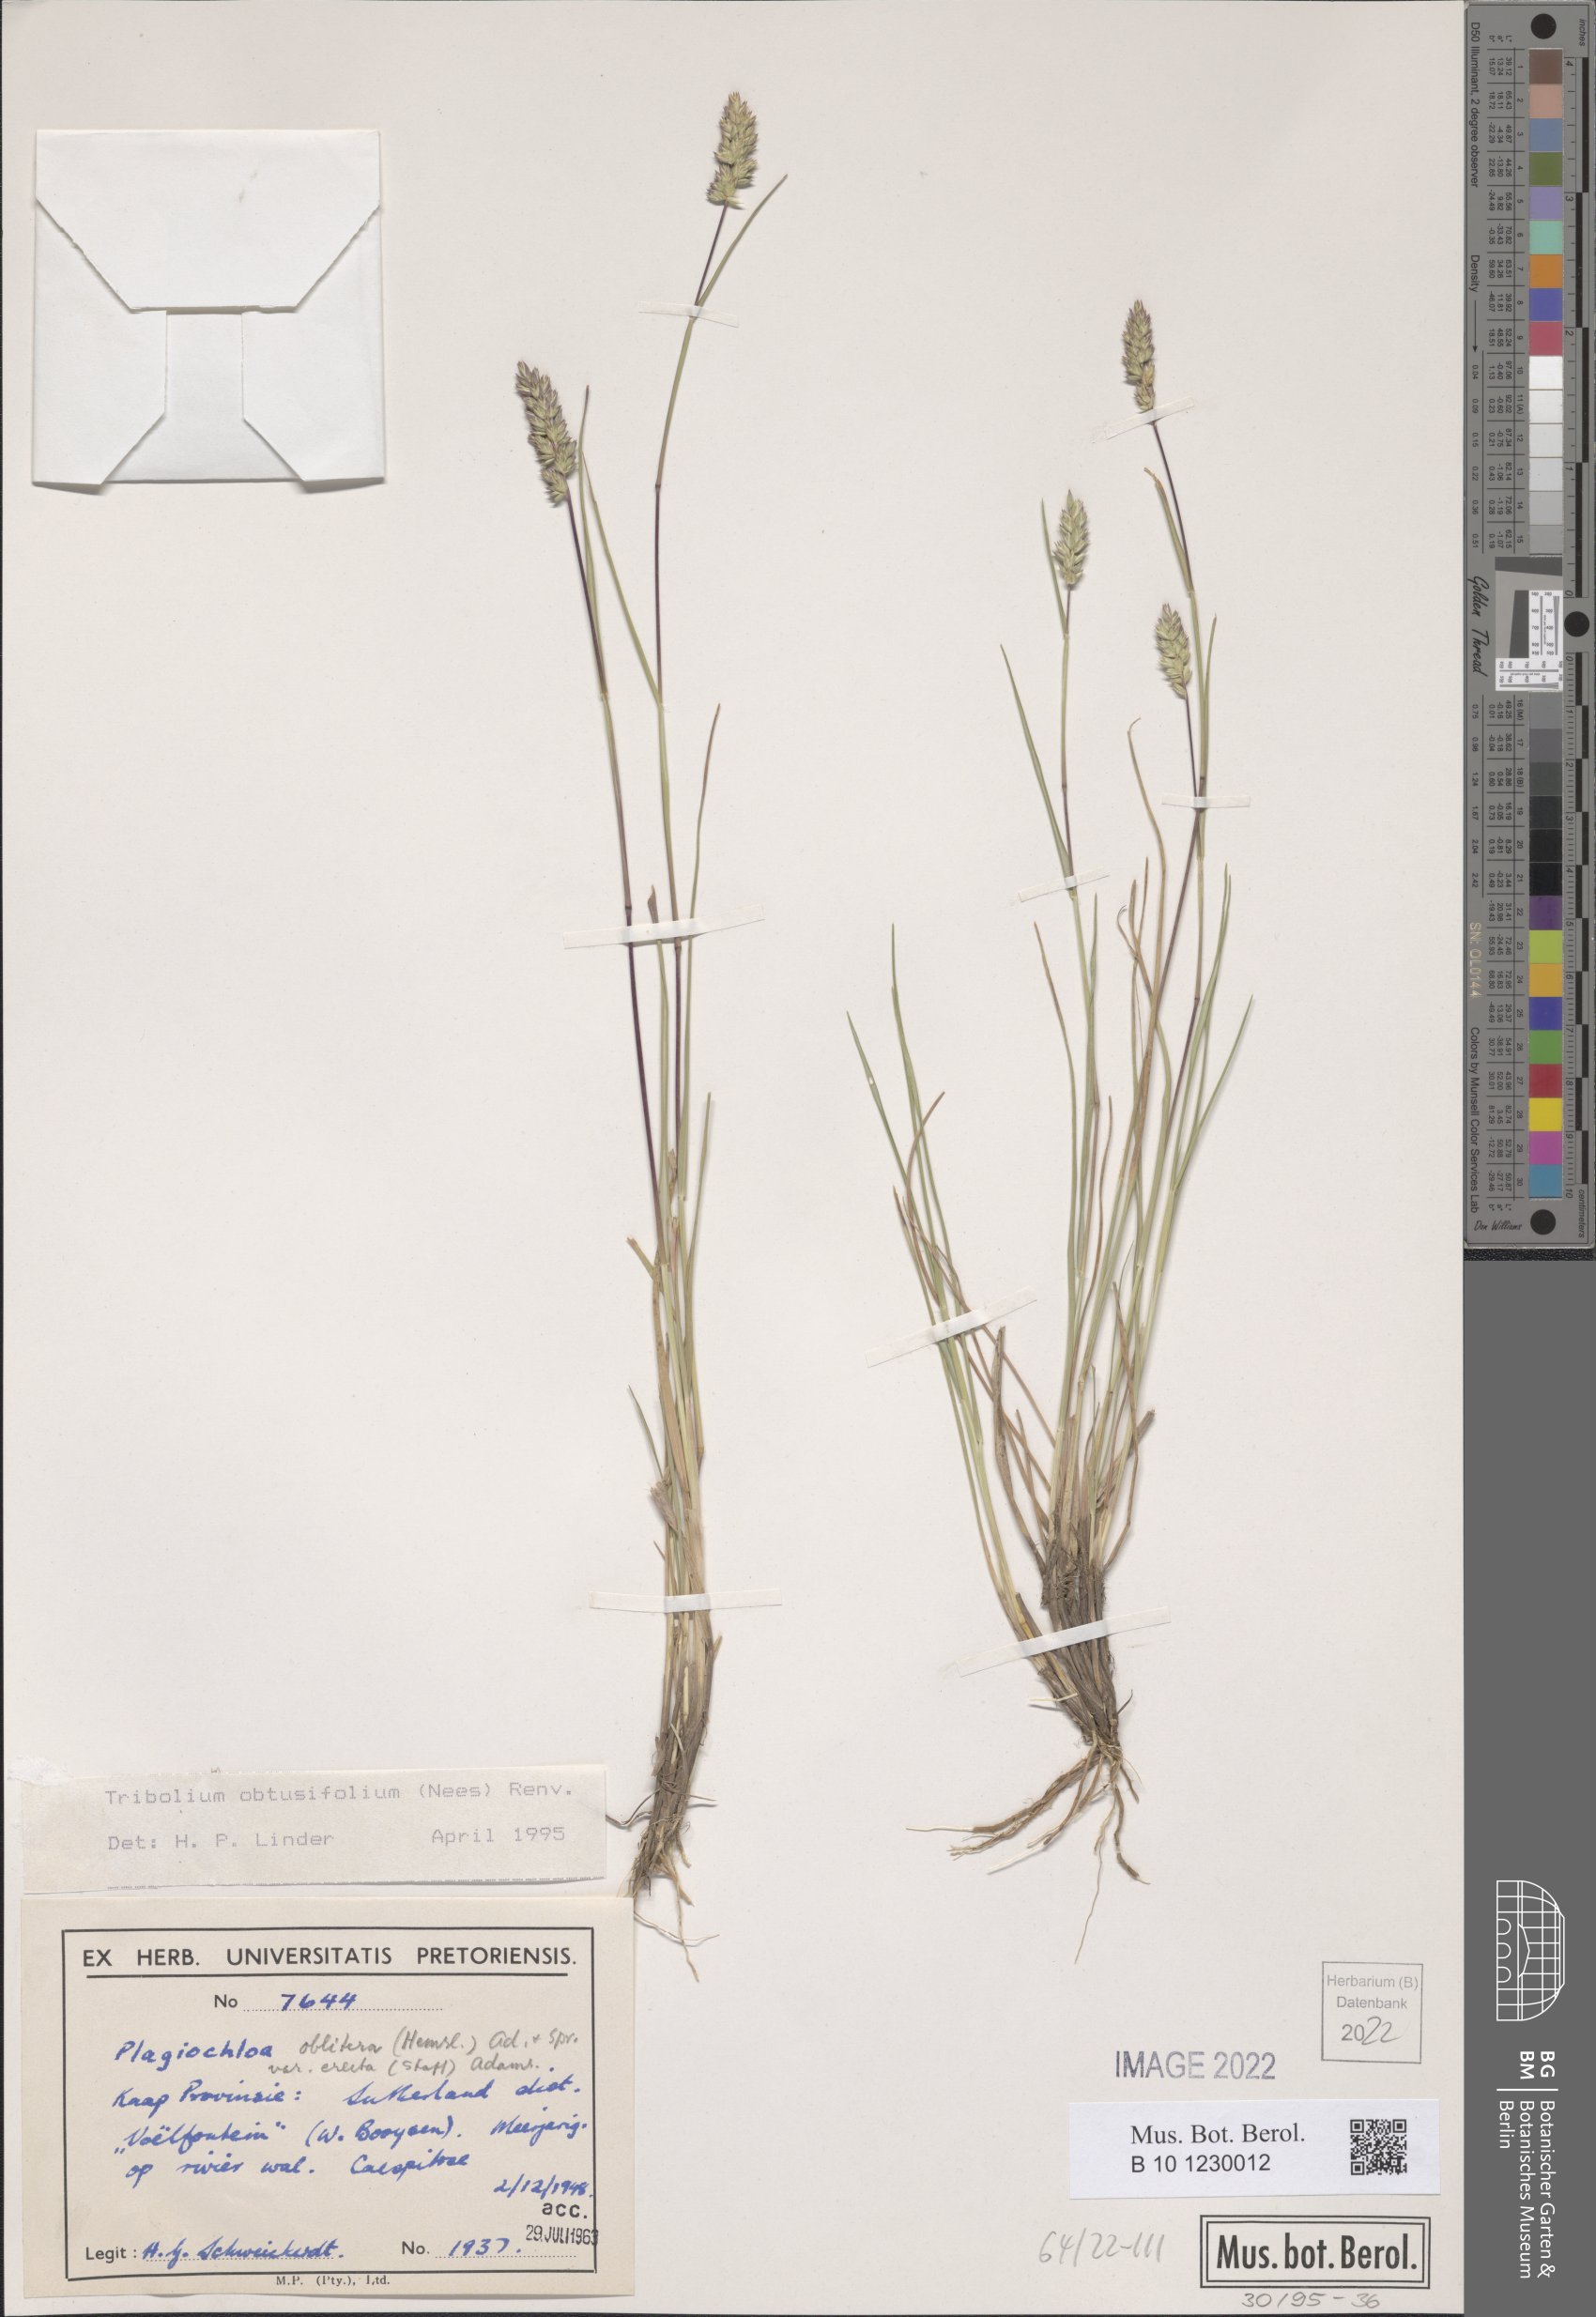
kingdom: Plantae
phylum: Tracheophyta
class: Liliopsida
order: Poales
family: Poaceae
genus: Tribolium
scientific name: Tribolium obtusifolium
